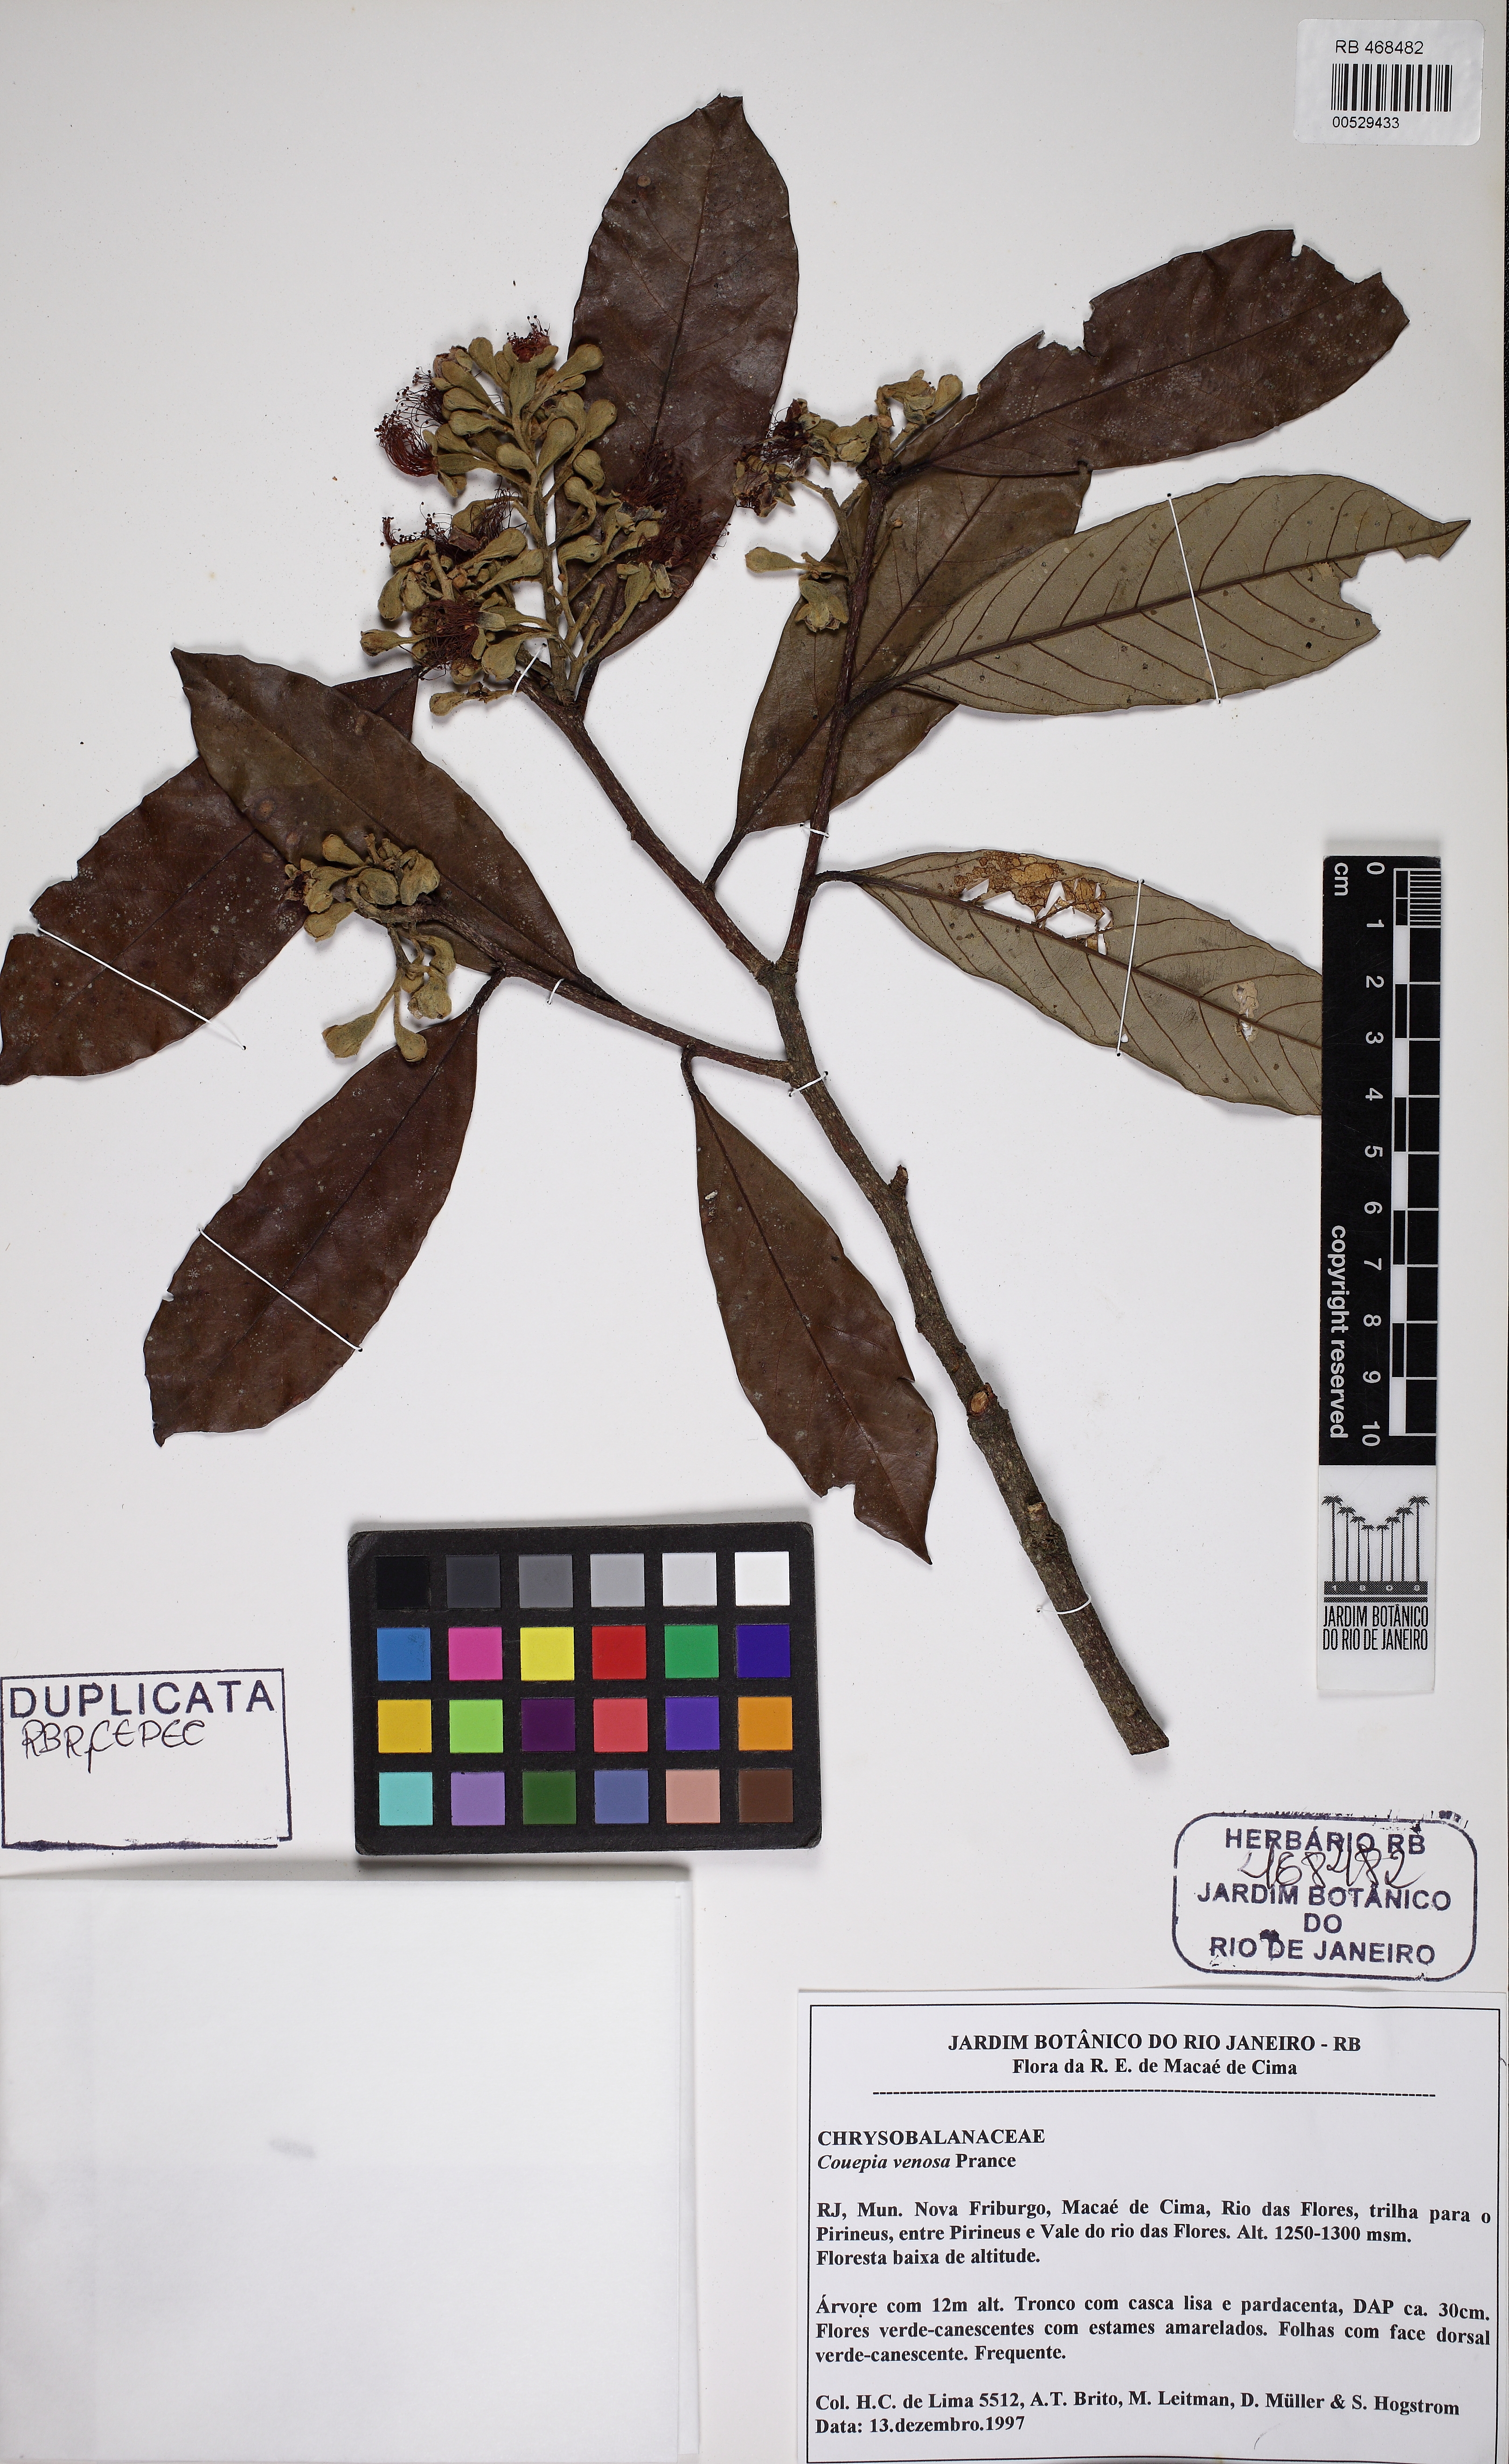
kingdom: Plantae
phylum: Tracheophyta
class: Magnoliopsida
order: Malpighiales
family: Chrysobalanaceae
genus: Couepia
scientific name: Couepia venosa
